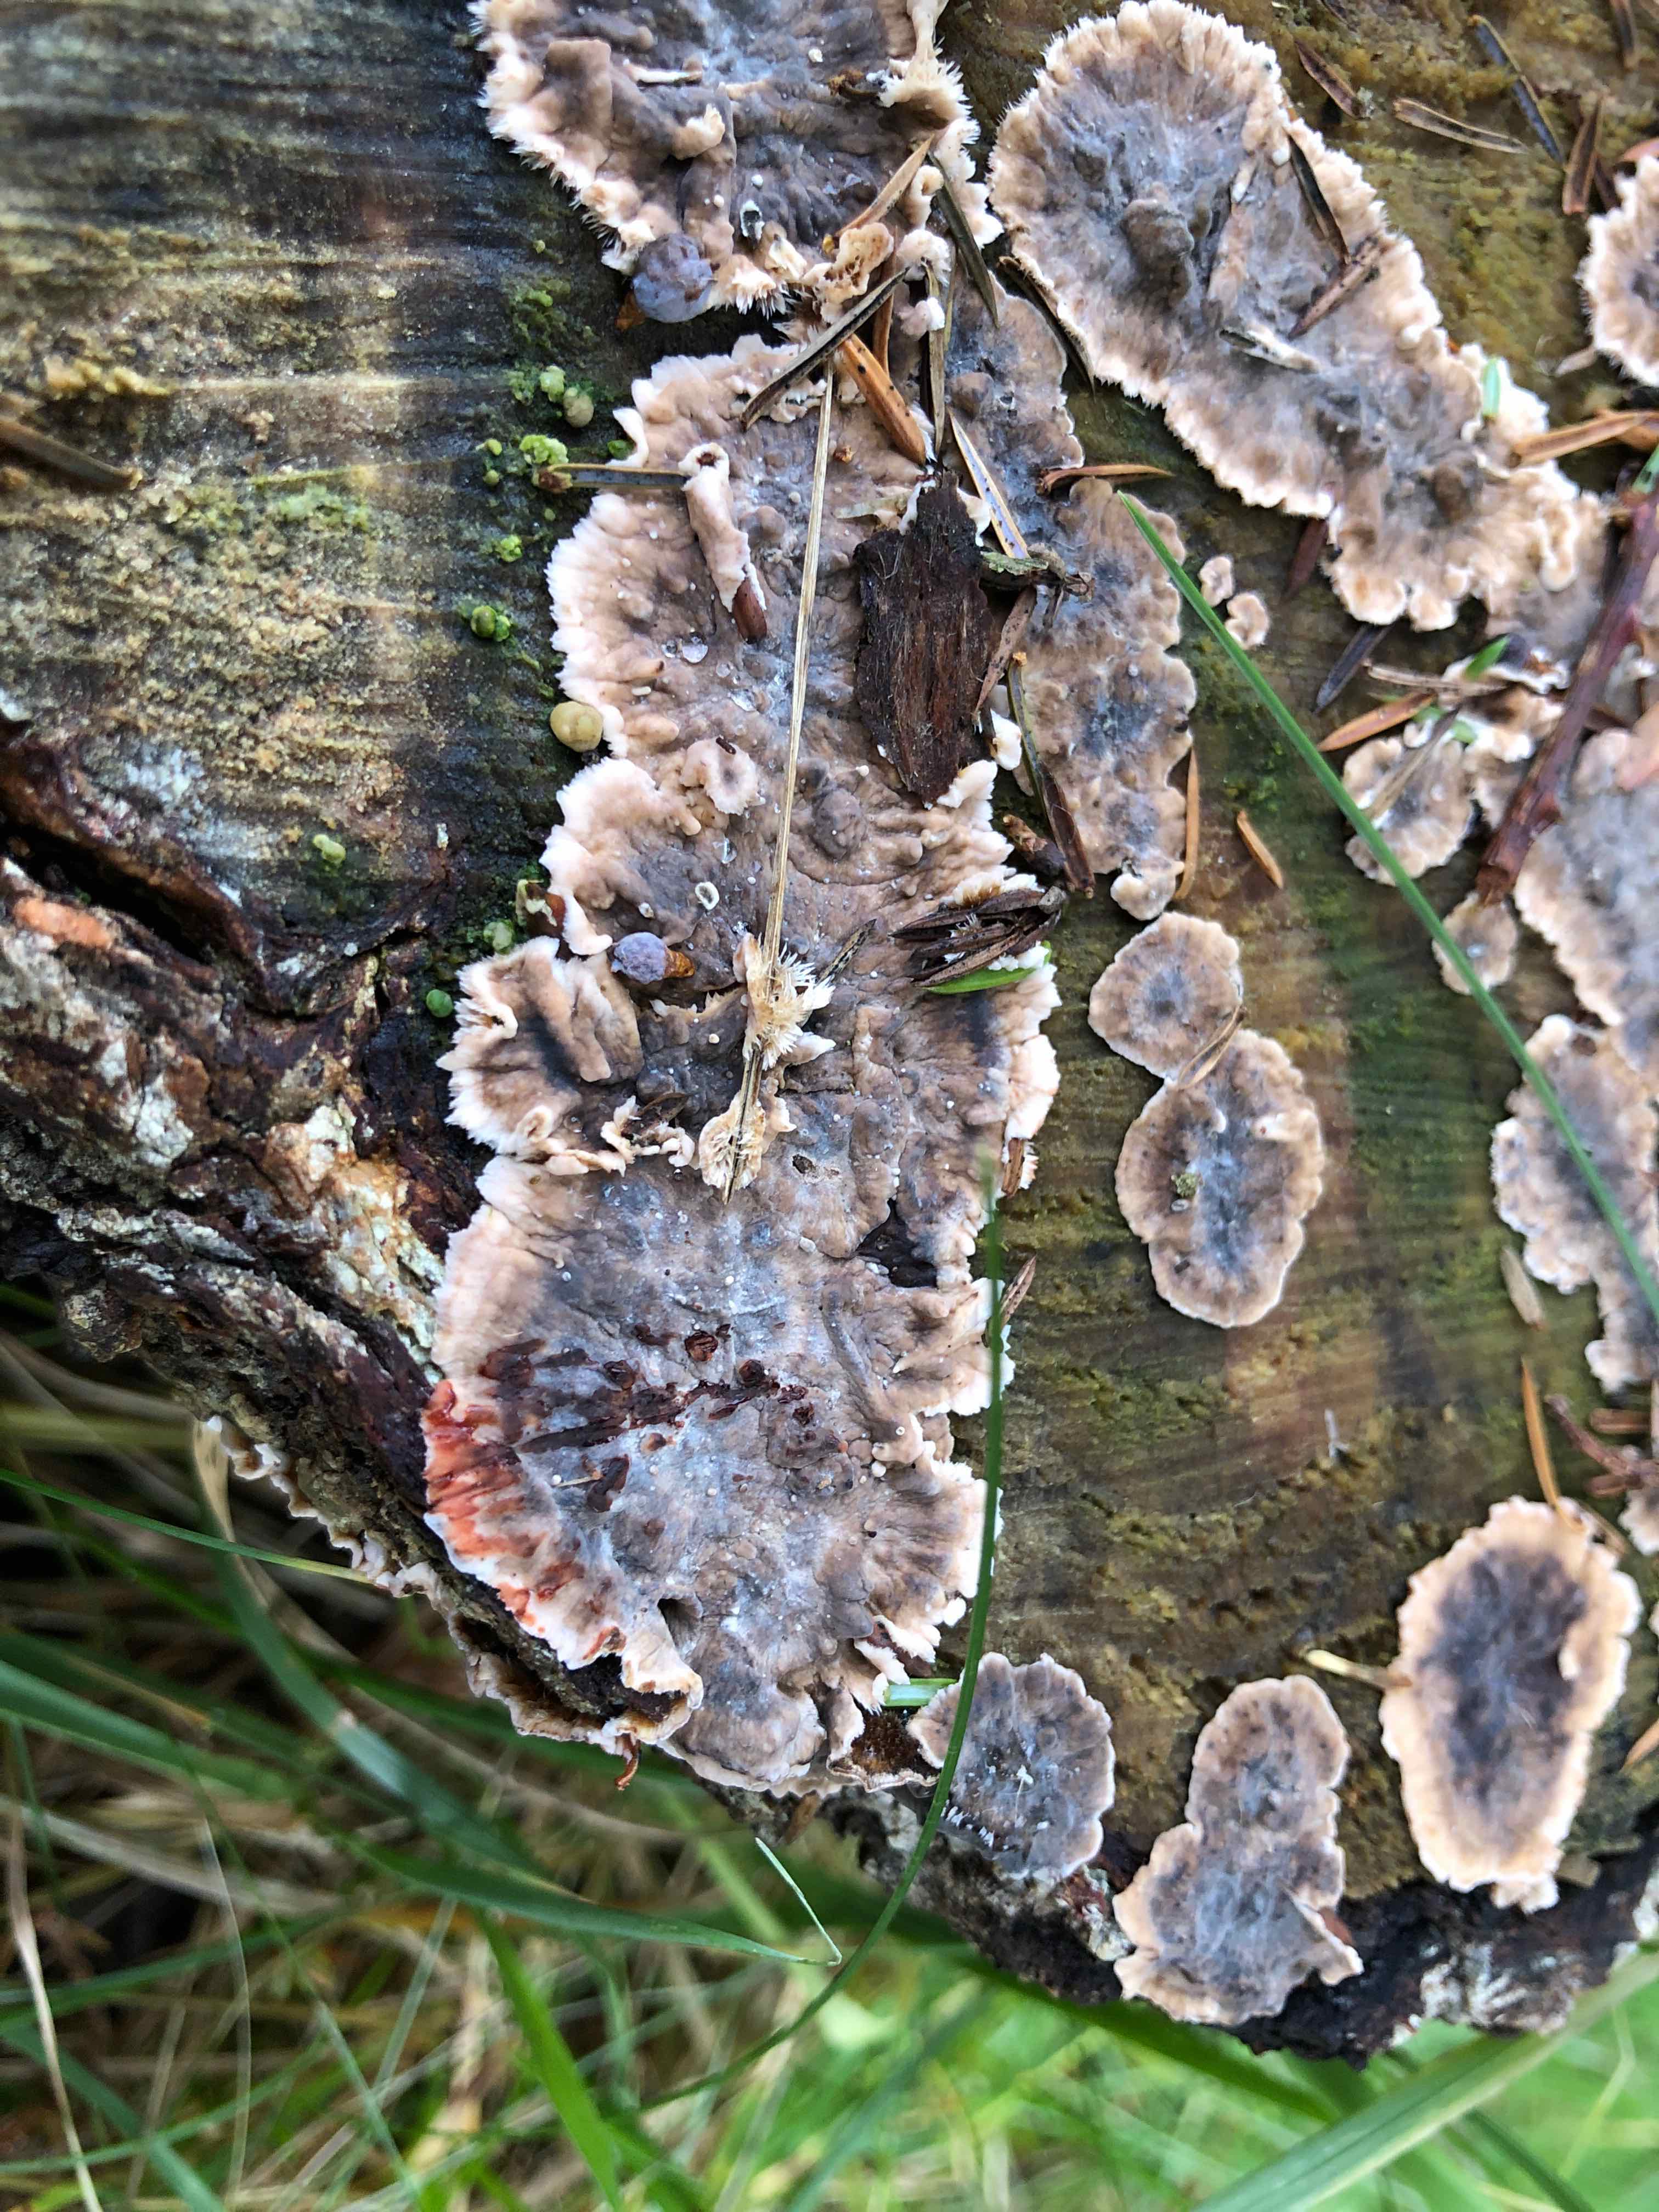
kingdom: Fungi
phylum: Basidiomycota
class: Agaricomycetes
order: Russulales
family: Stereaceae
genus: Stereum
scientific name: Stereum sanguinolentum
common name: blødende lædersvamp
